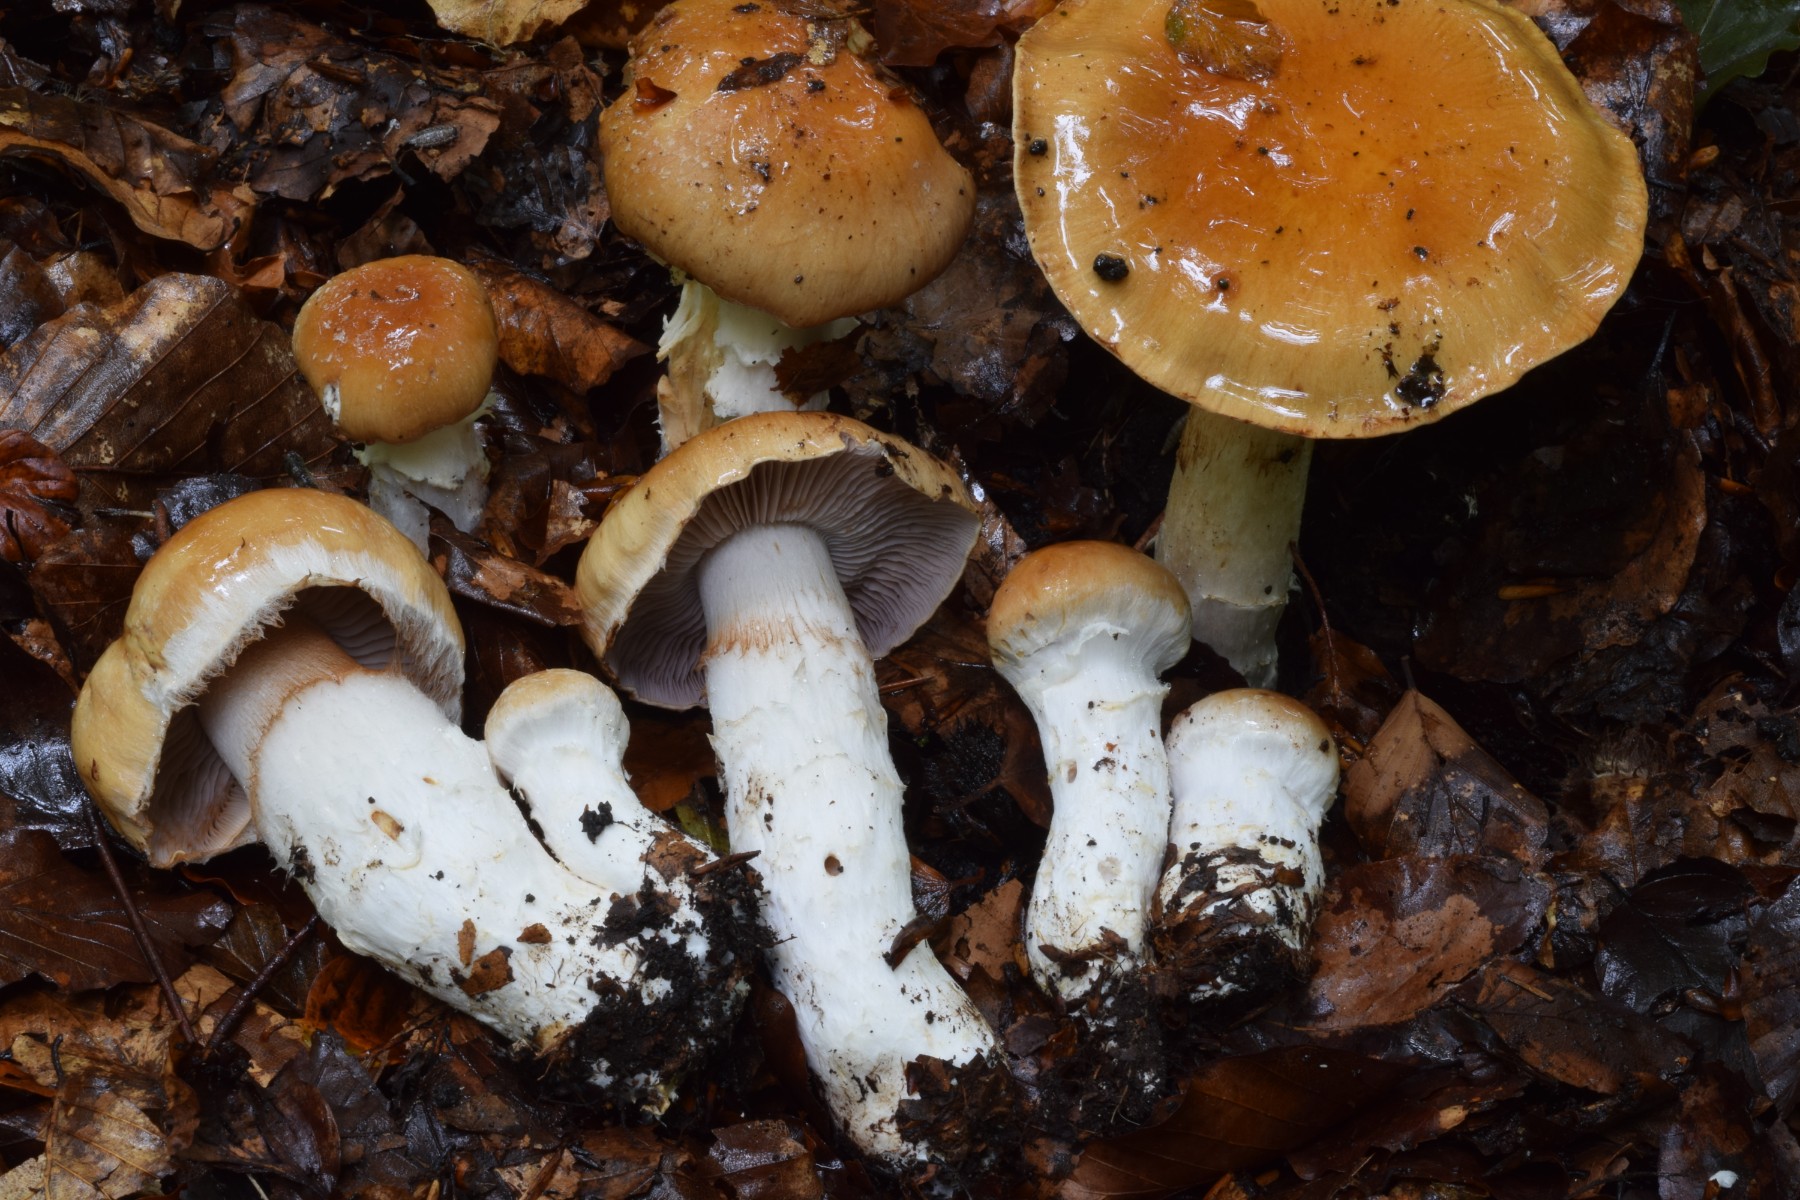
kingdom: Fungi
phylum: Basidiomycota
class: Agaricomycetes
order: Agaricales
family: Cortinariaceae
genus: Phlegmacium
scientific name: Phlegmacium obsoletum
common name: ulve-slørhat
